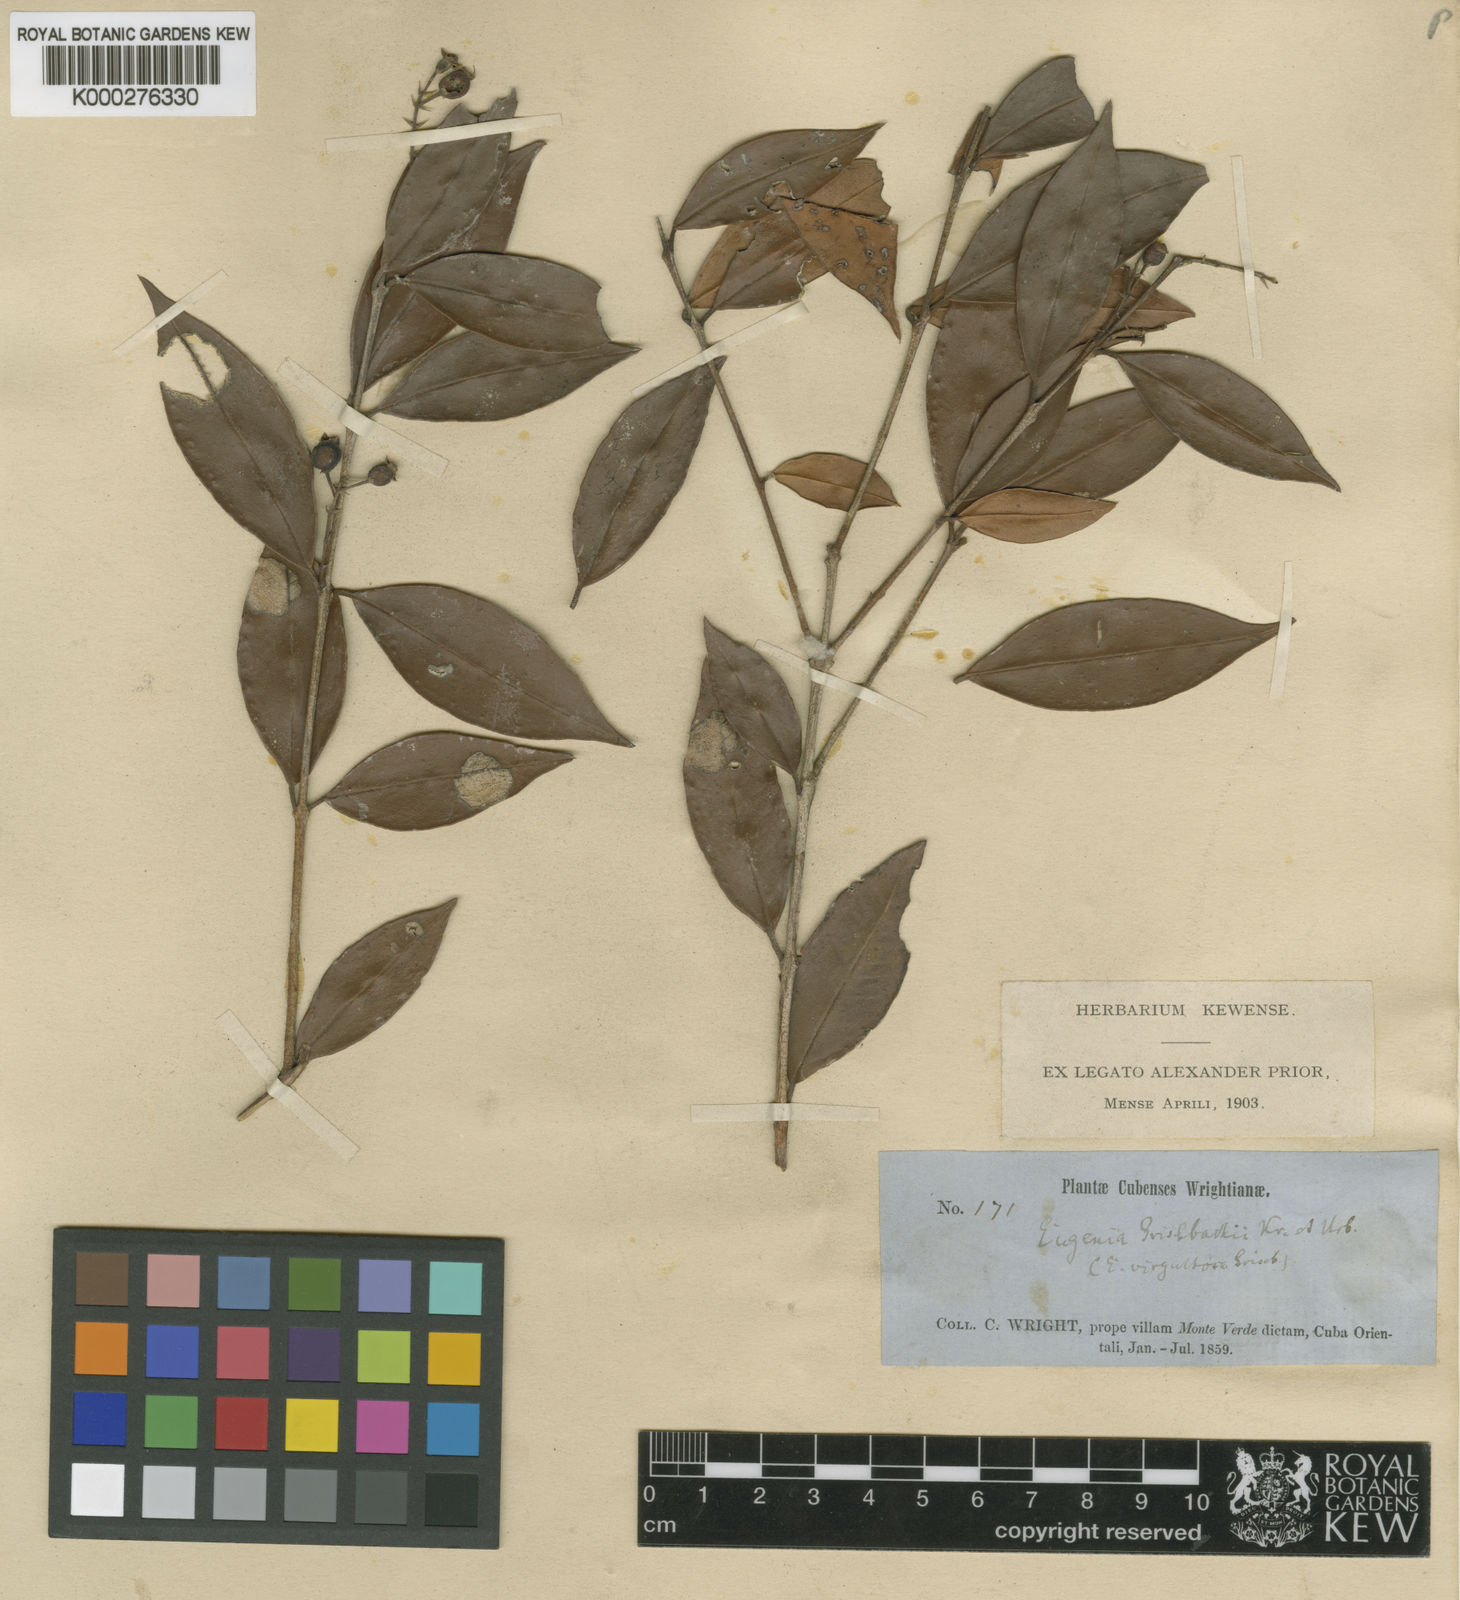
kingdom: Plantae
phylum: Tracheophyta
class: Magnoliopsida
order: Myrtales
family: Myrtaceae
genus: Eugenia
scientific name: Eugenia grisebachii
